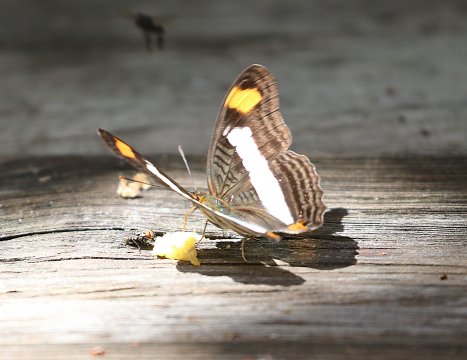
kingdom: Animalia
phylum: Arthropoda
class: Insecta
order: Lepidoptera
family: Nymphalidae
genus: Limenitis
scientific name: Limenitis Adelpha basiloides
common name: Spot-celled Sister
